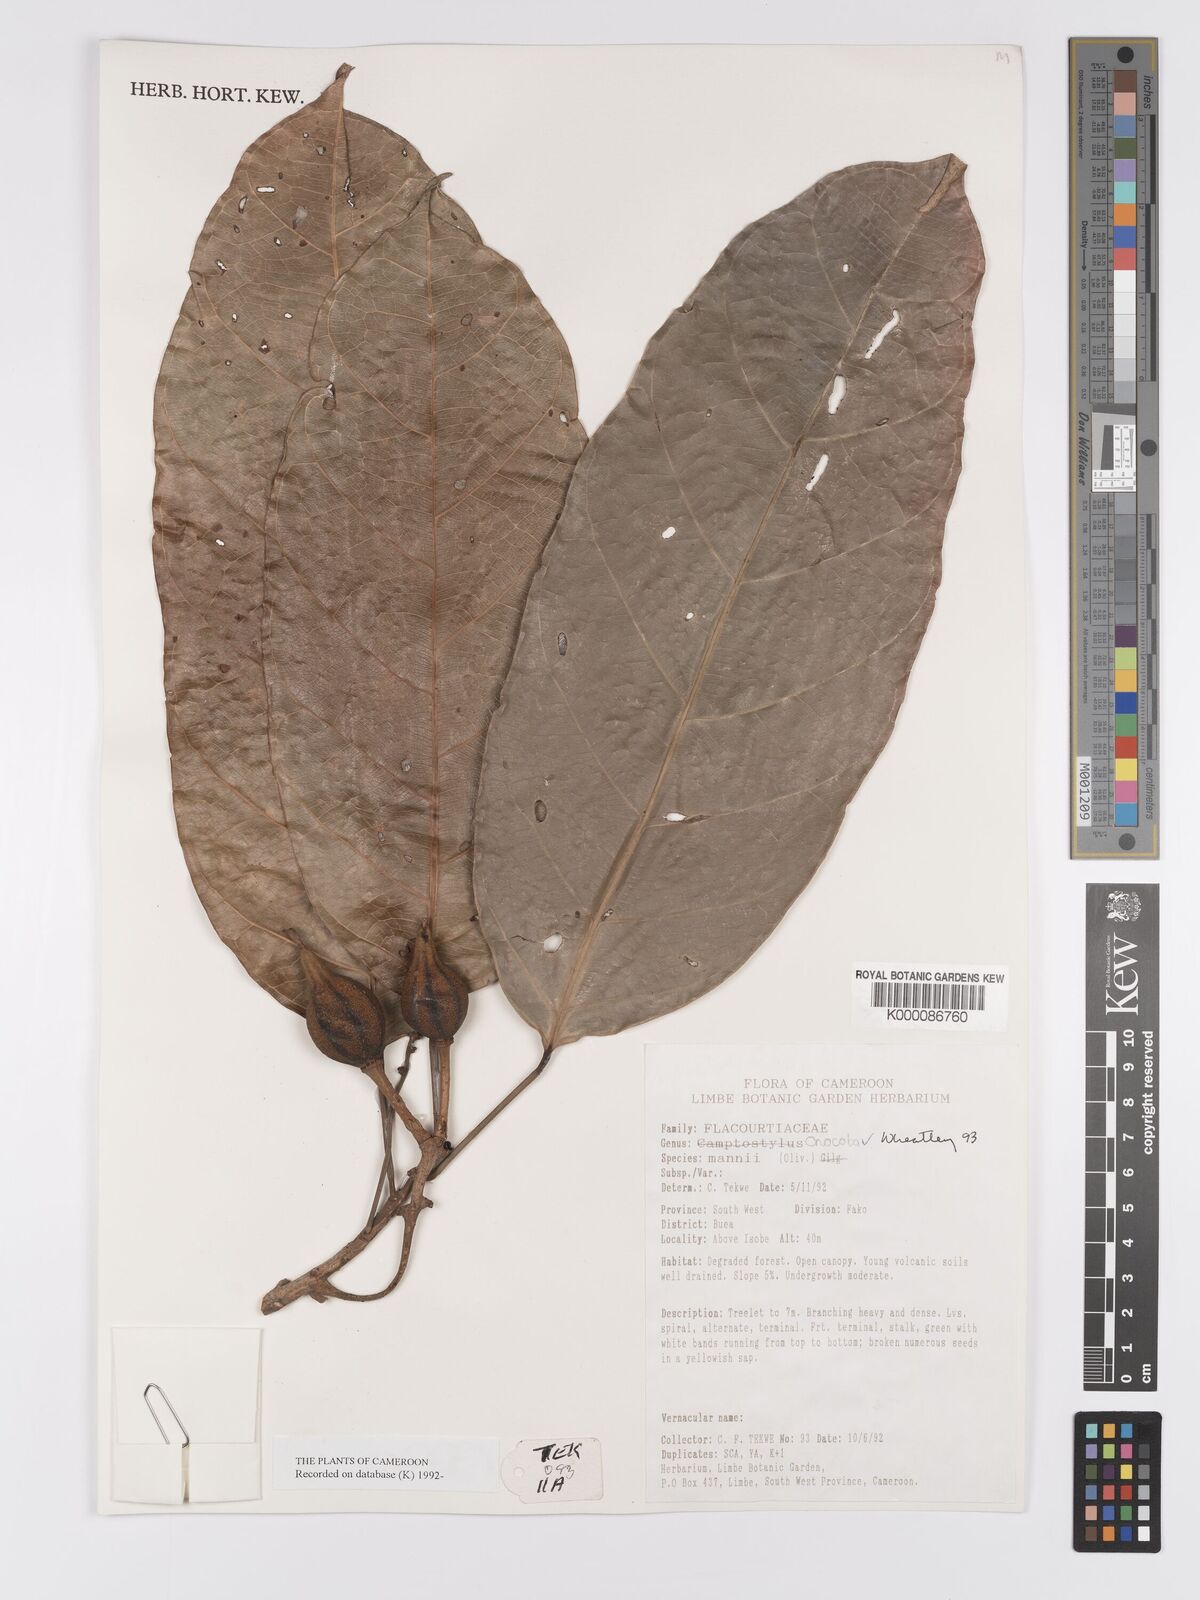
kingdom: Plantae
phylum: Tracheophyta
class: Magnoliopsida
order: Malpighiales
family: Achariaceae
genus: Camptostylus
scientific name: Camptostylus mannii
